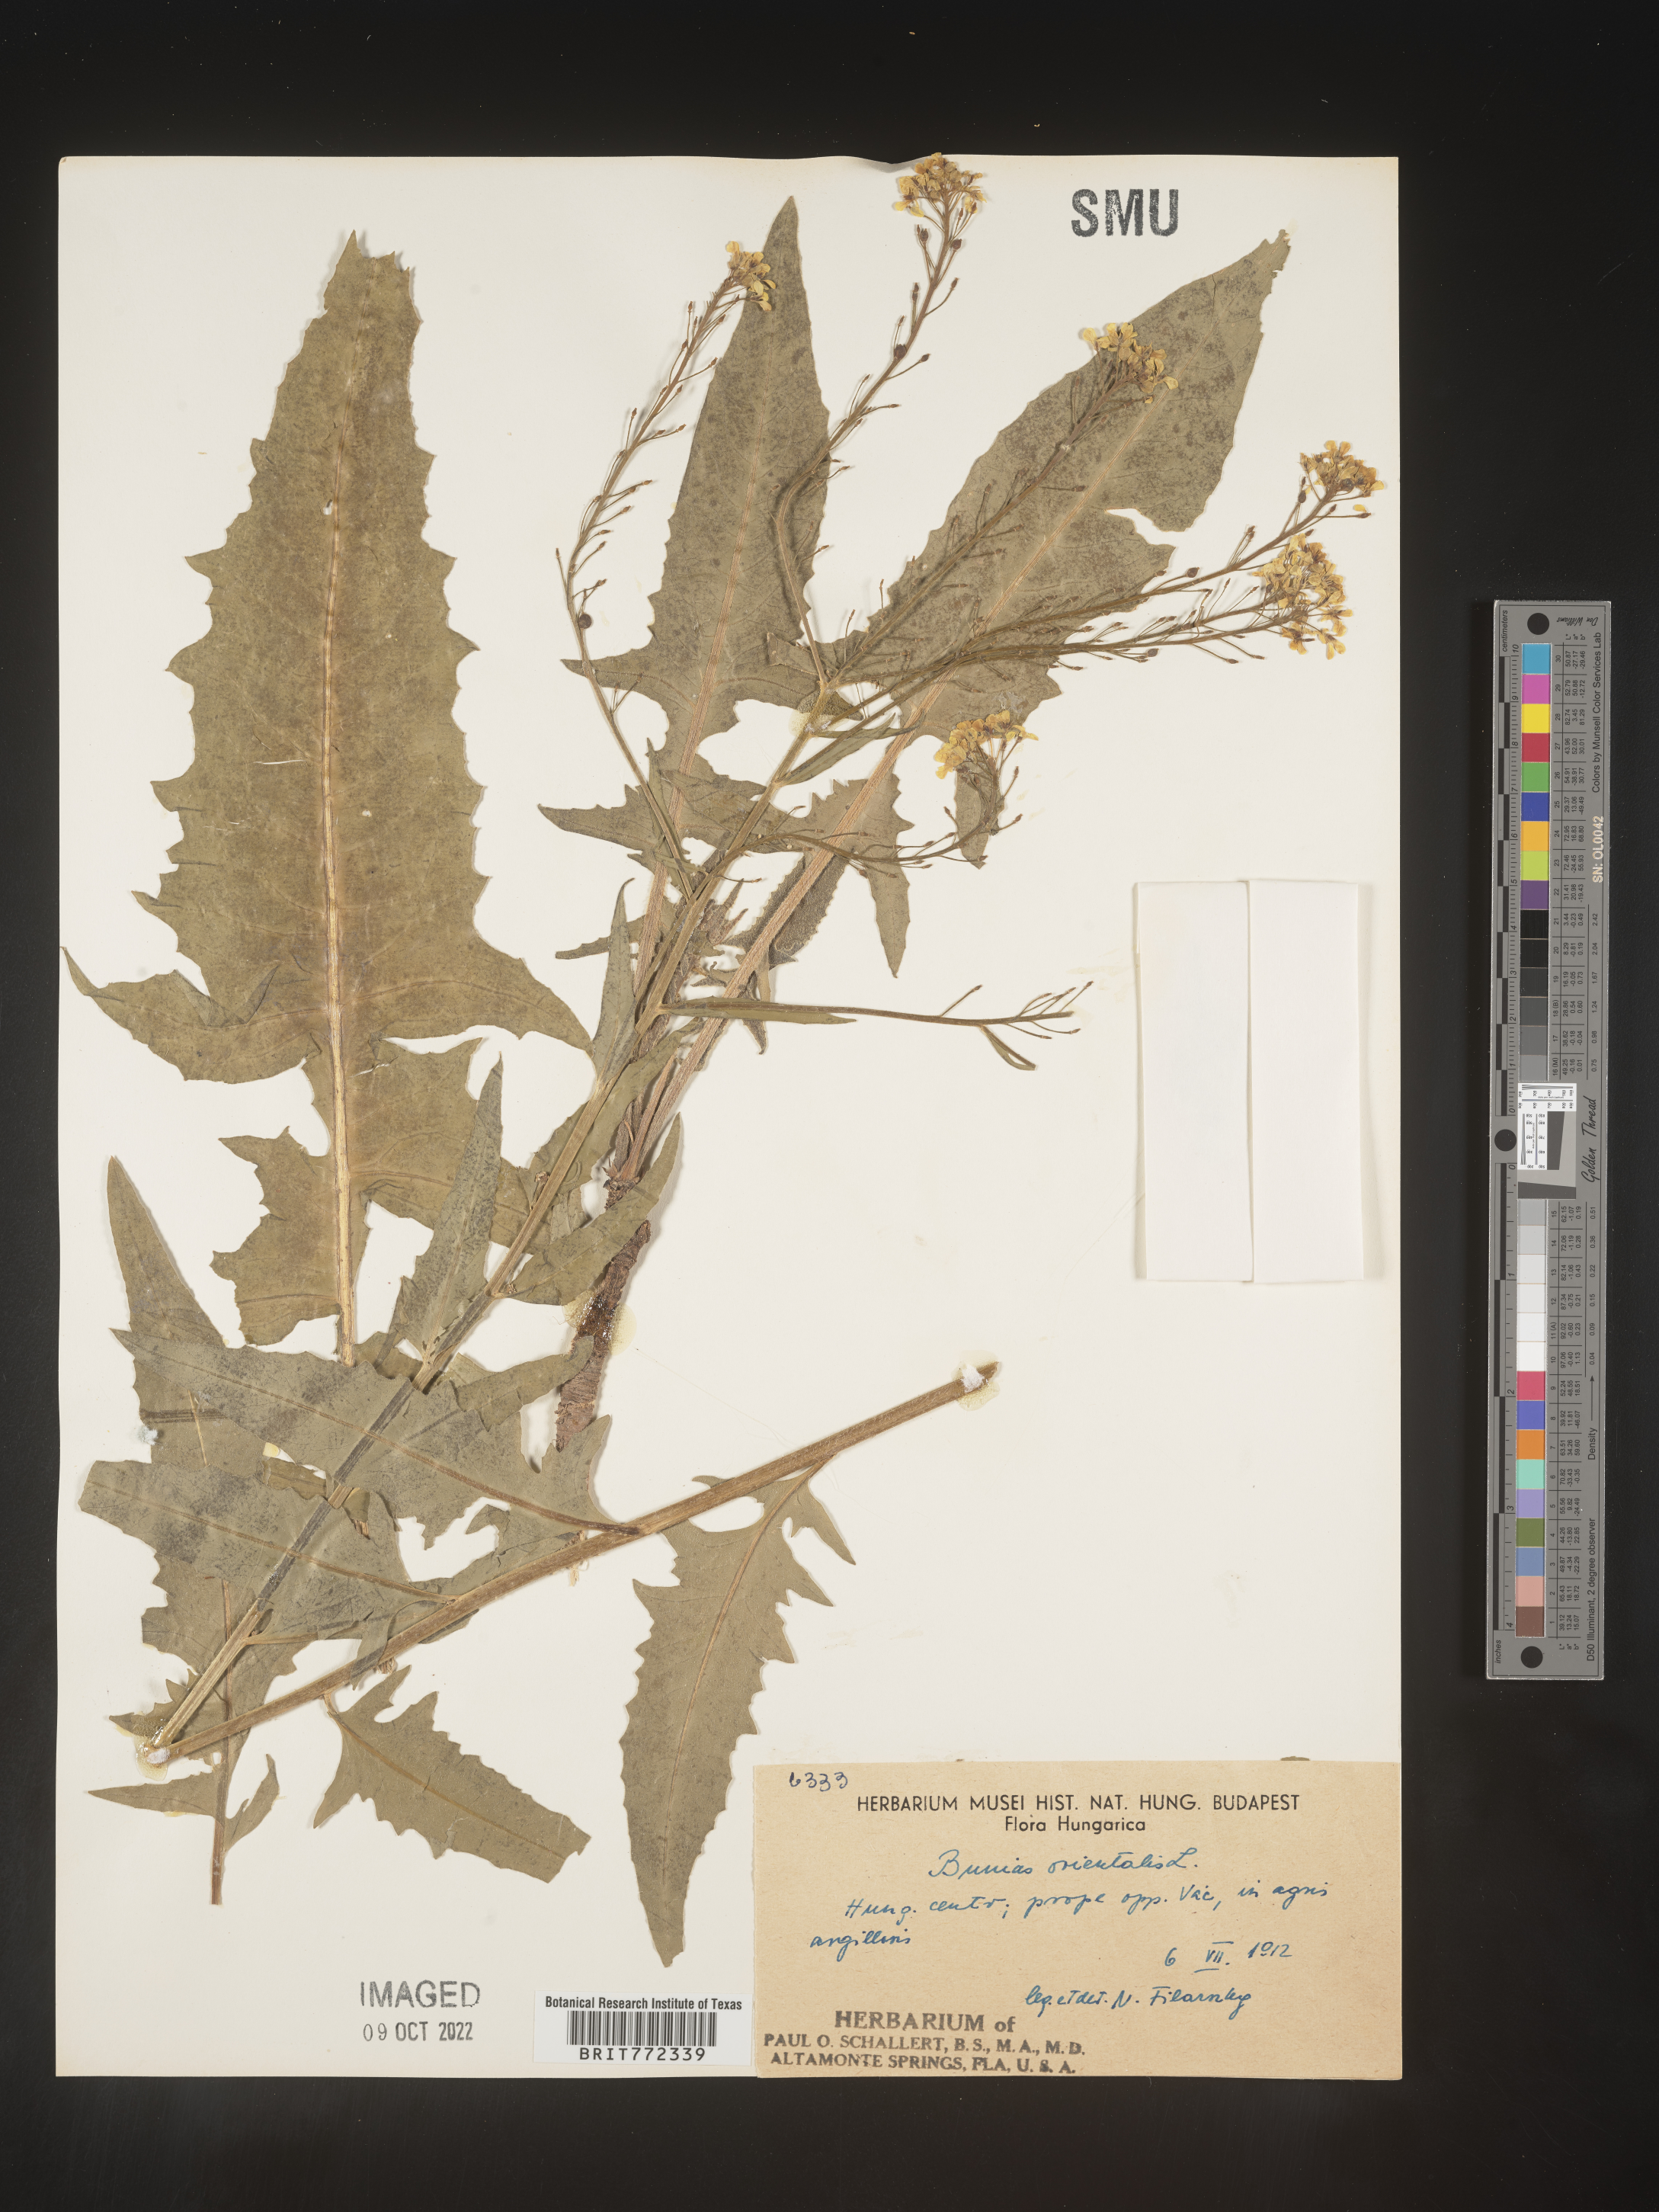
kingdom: Plantae
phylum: Tracheophyta
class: Magnoliopsida
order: Brassicales
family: Brassicaceae
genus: Bunias
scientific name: Bunias
